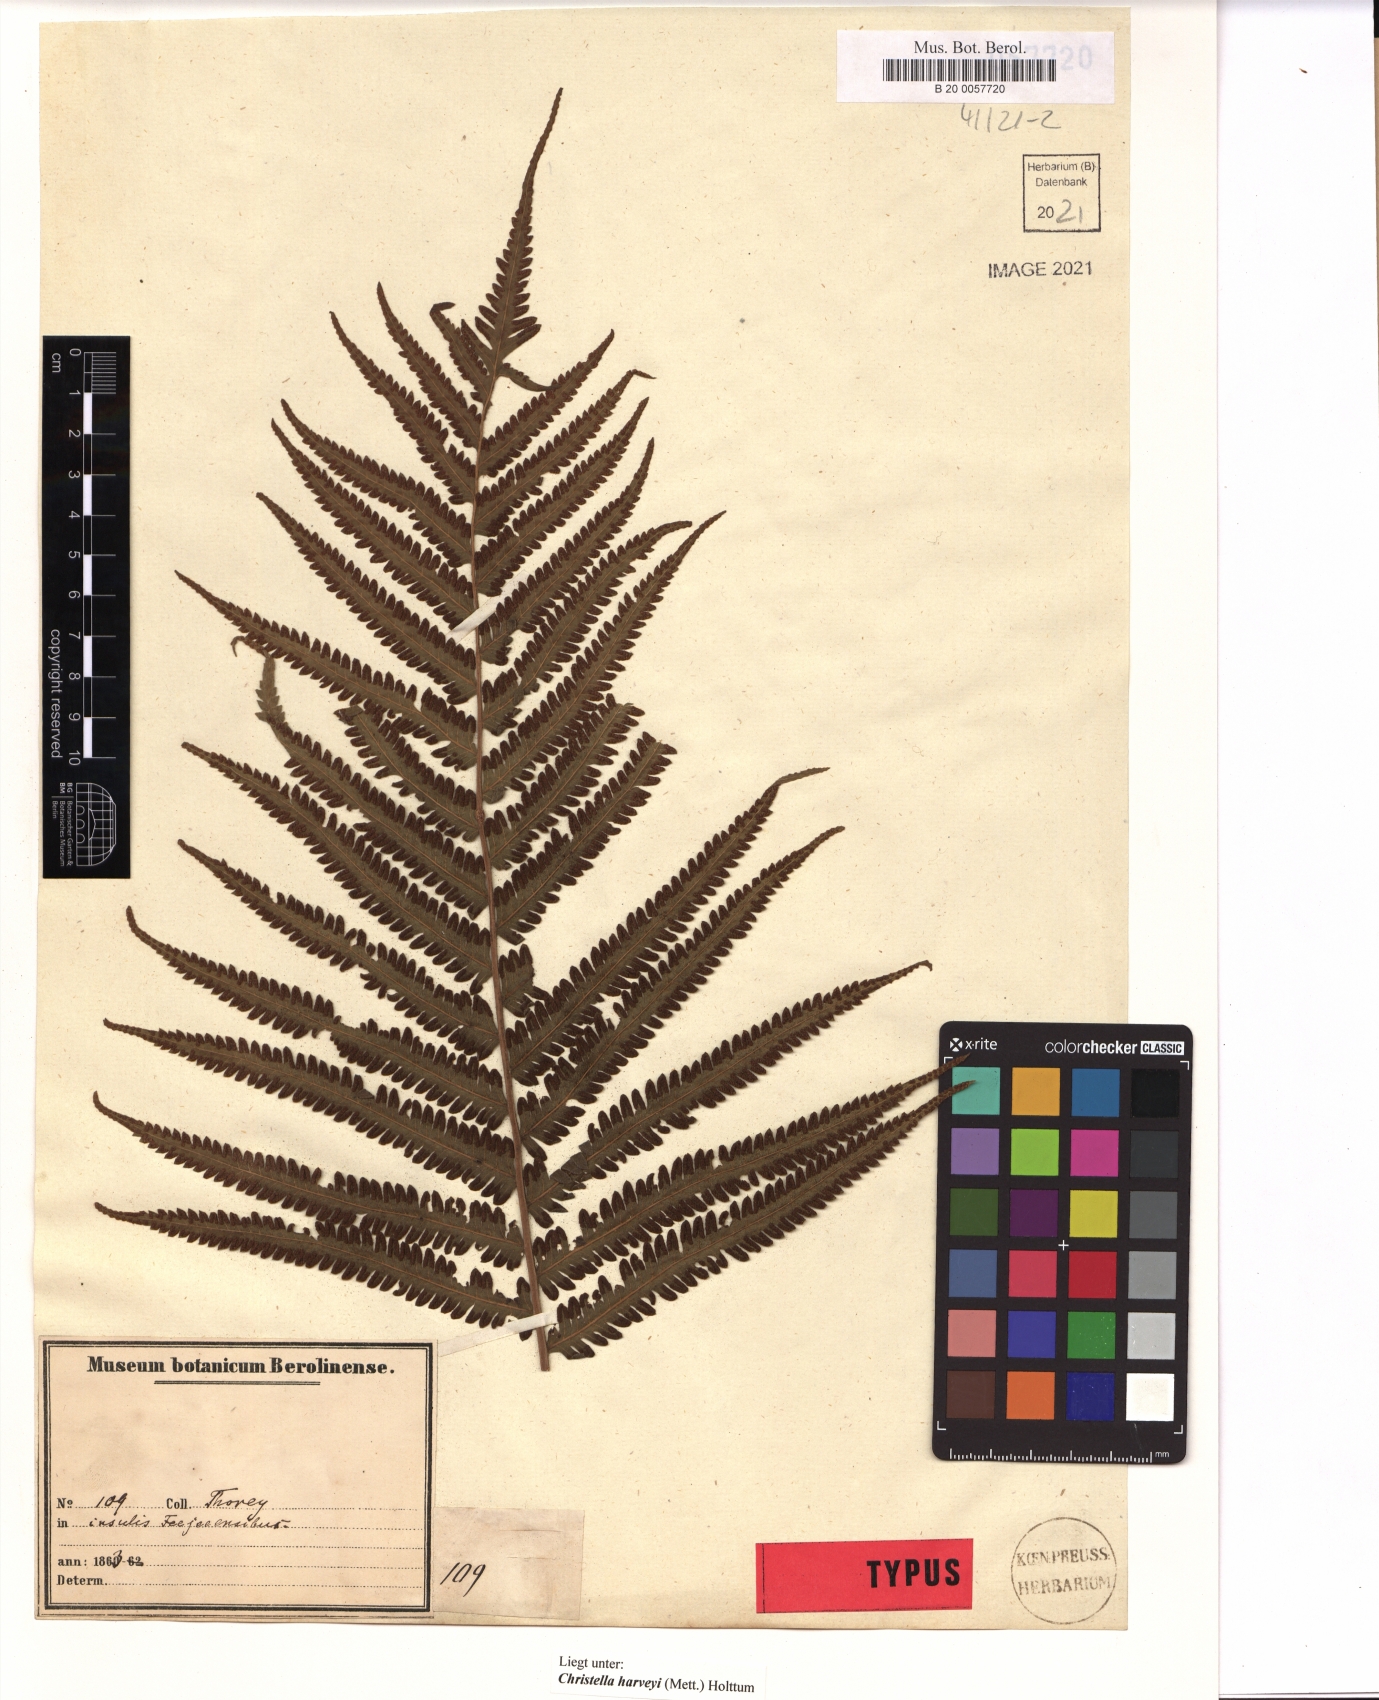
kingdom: Plantae
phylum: Tracheophyta
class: Polypodiopsida
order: Polypodiales
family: Thelypteridaceae
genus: Christella
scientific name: Christella harveyi
